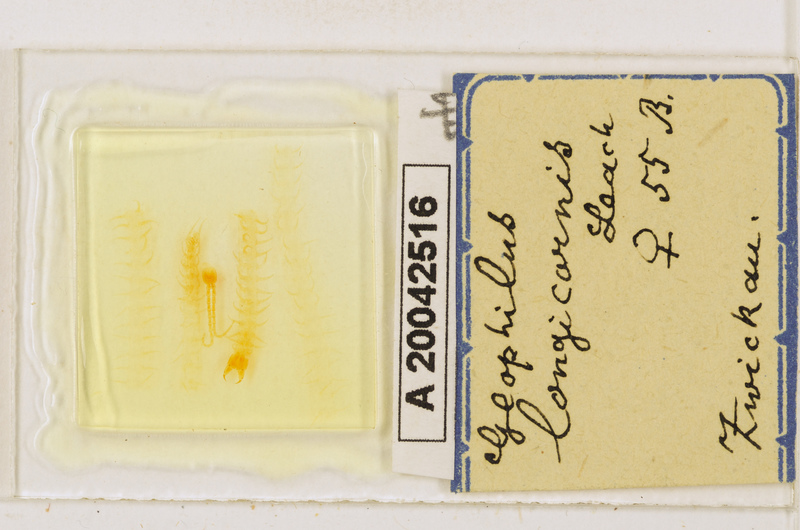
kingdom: Animalia
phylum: Arthropoda
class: Chilopoda
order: Geophilomorpha
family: Geophilidae
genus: Geophilus
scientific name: Geophilus flavus
